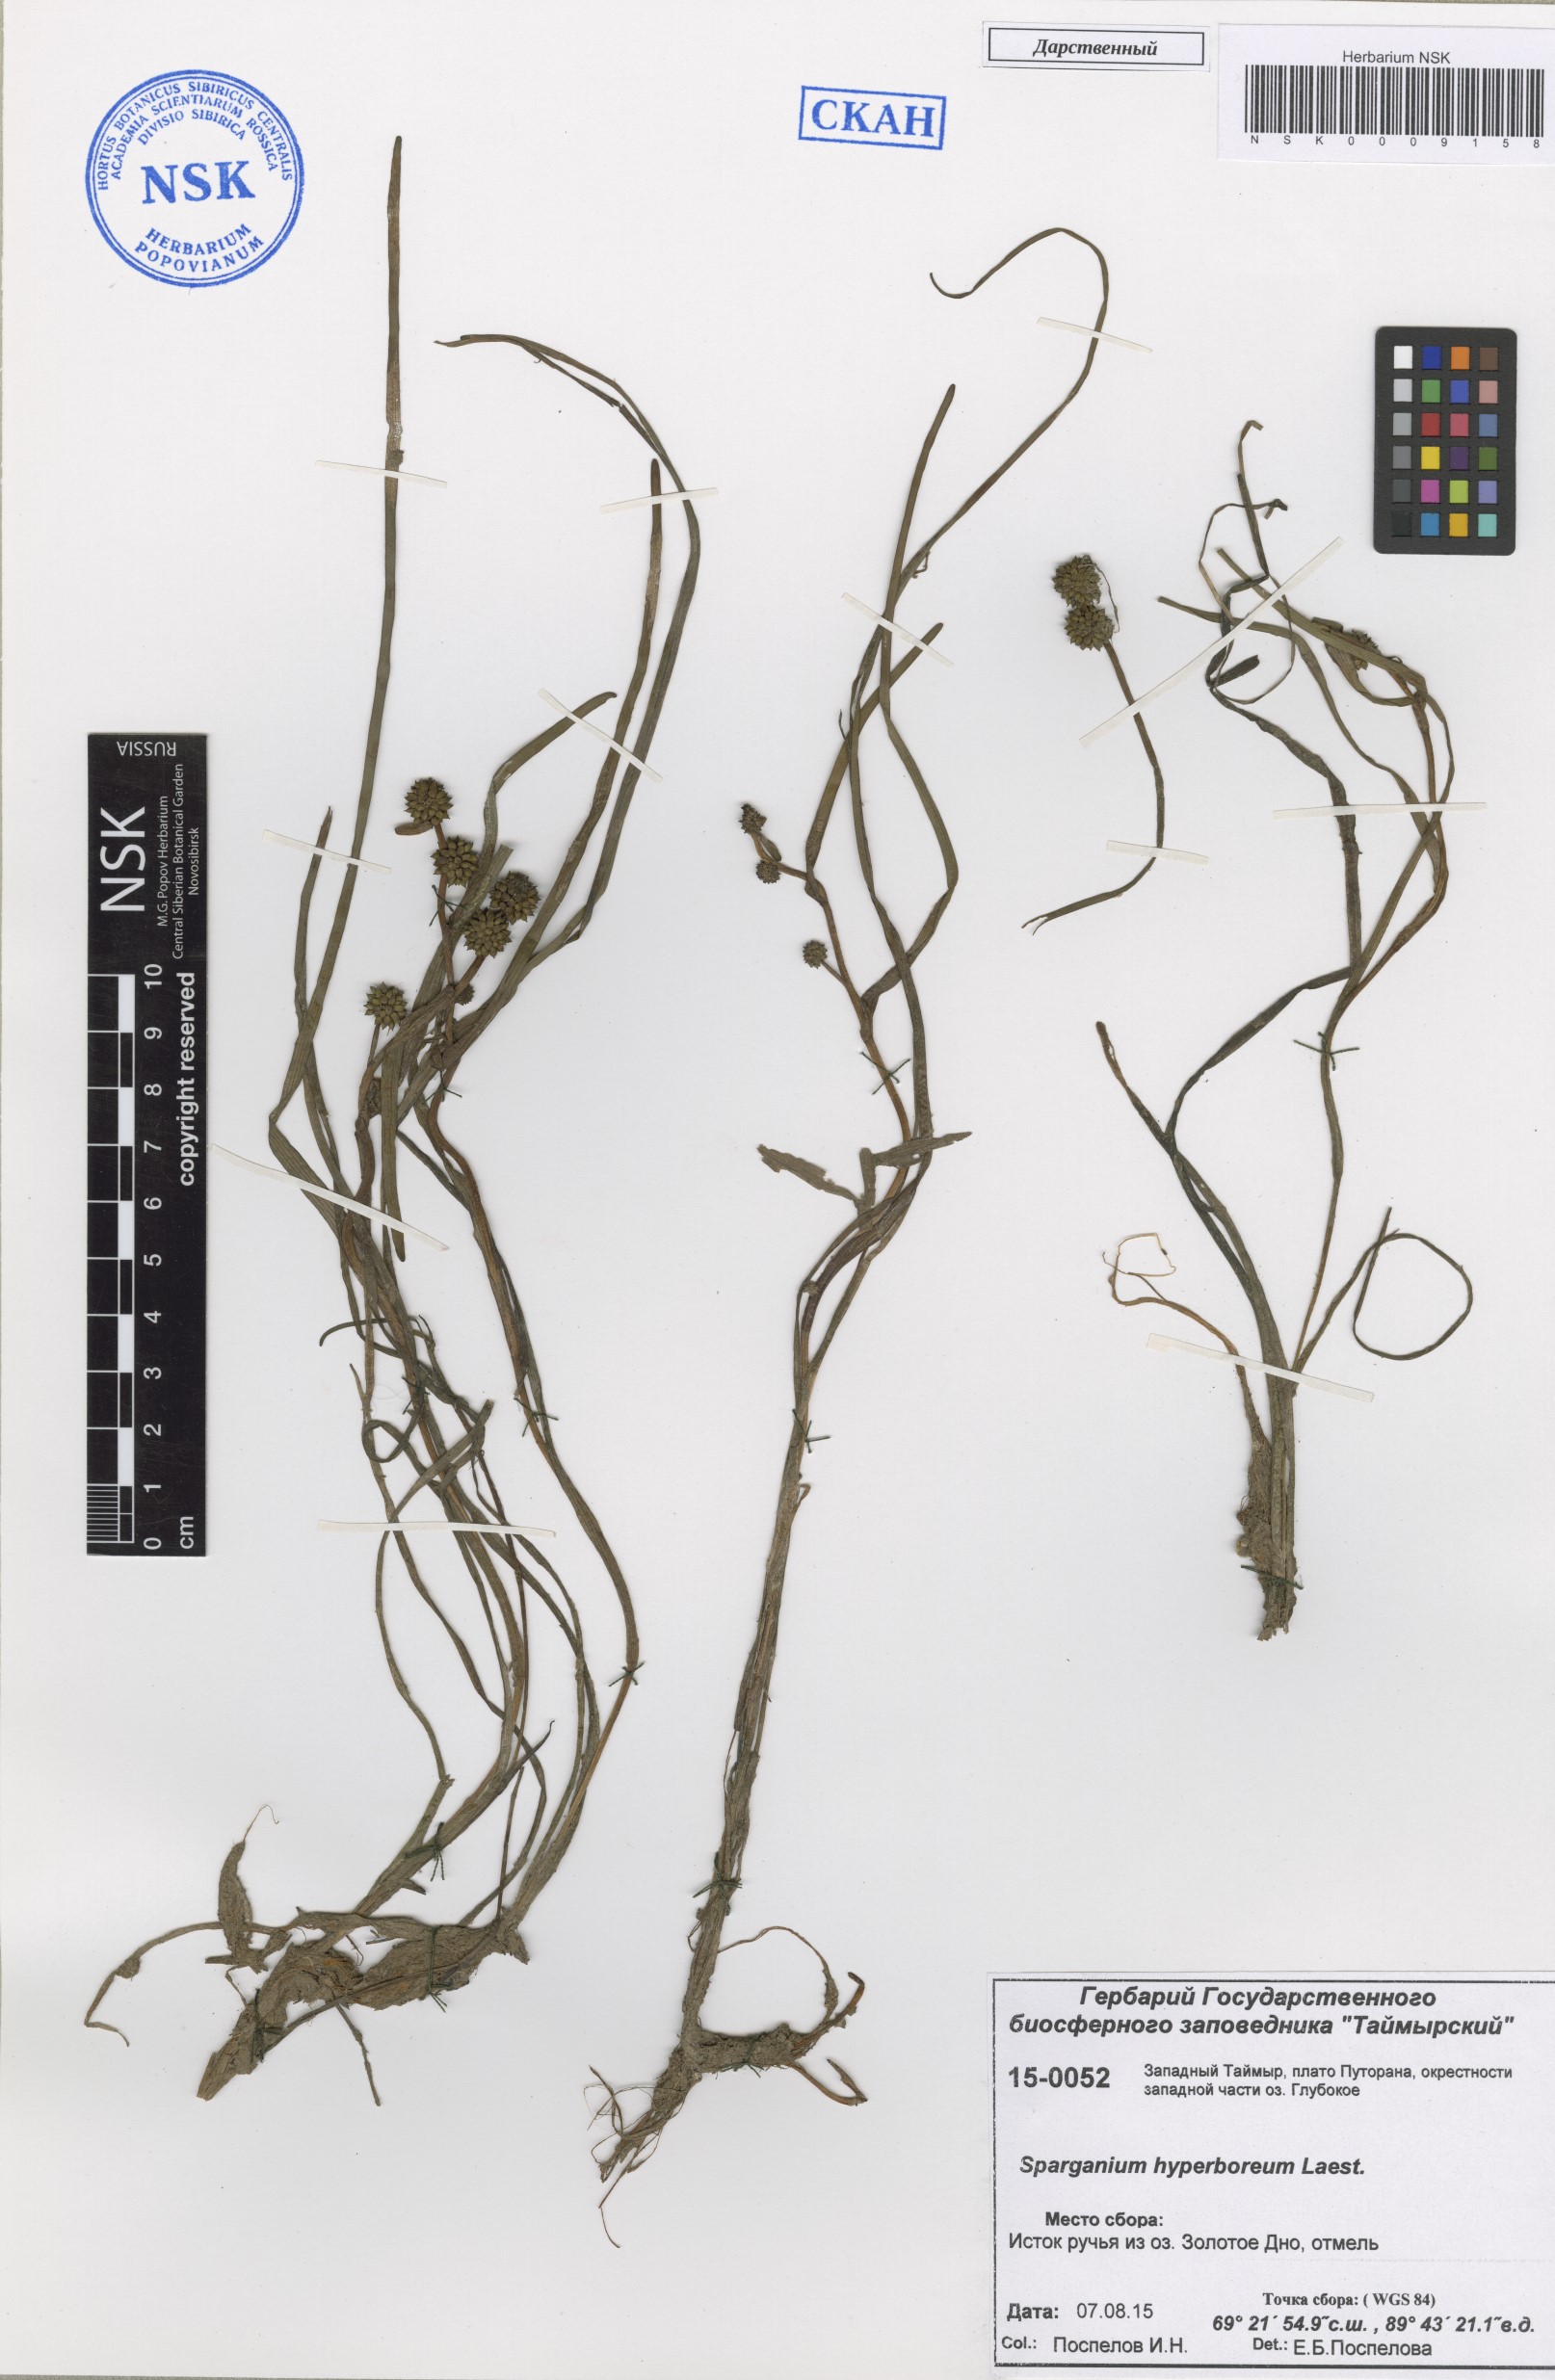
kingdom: Plantae
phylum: Tracheophyta
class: Liliopsida
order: Poales
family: Typhaceae
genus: Sparganium
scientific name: Sparganium hyperboreum
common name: Arctic burreed
